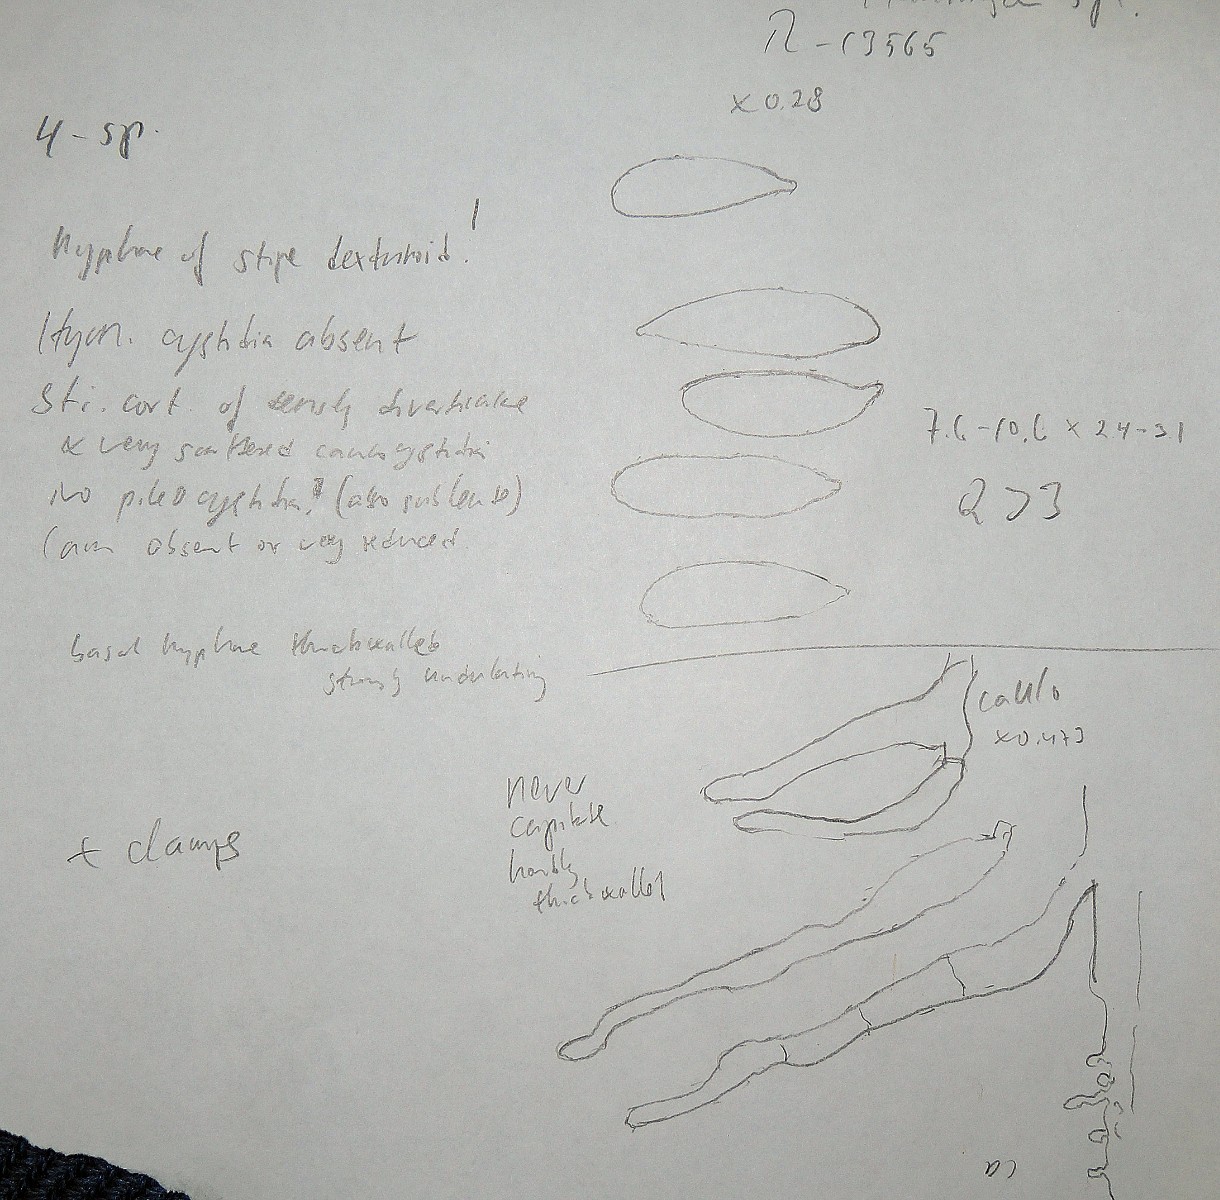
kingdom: Fungi
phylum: Basidiomycota
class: Agaricomycetes
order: Agaricales
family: Mycenaceae
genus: Hemimycena
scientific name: Hemimycena pseudogibba
